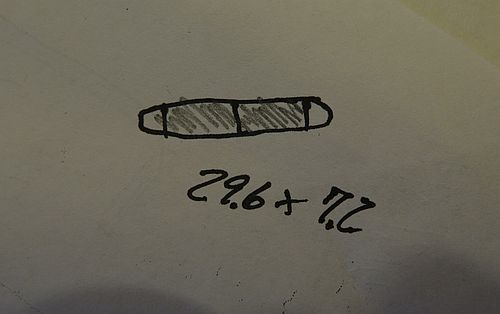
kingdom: Fungi
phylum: Ascomycota
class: Sordariomycetes
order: Coronophorales
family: Chaetosphaerellaceae
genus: Chaetosphaerella
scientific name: Chaetosphaerella phaeostroma
